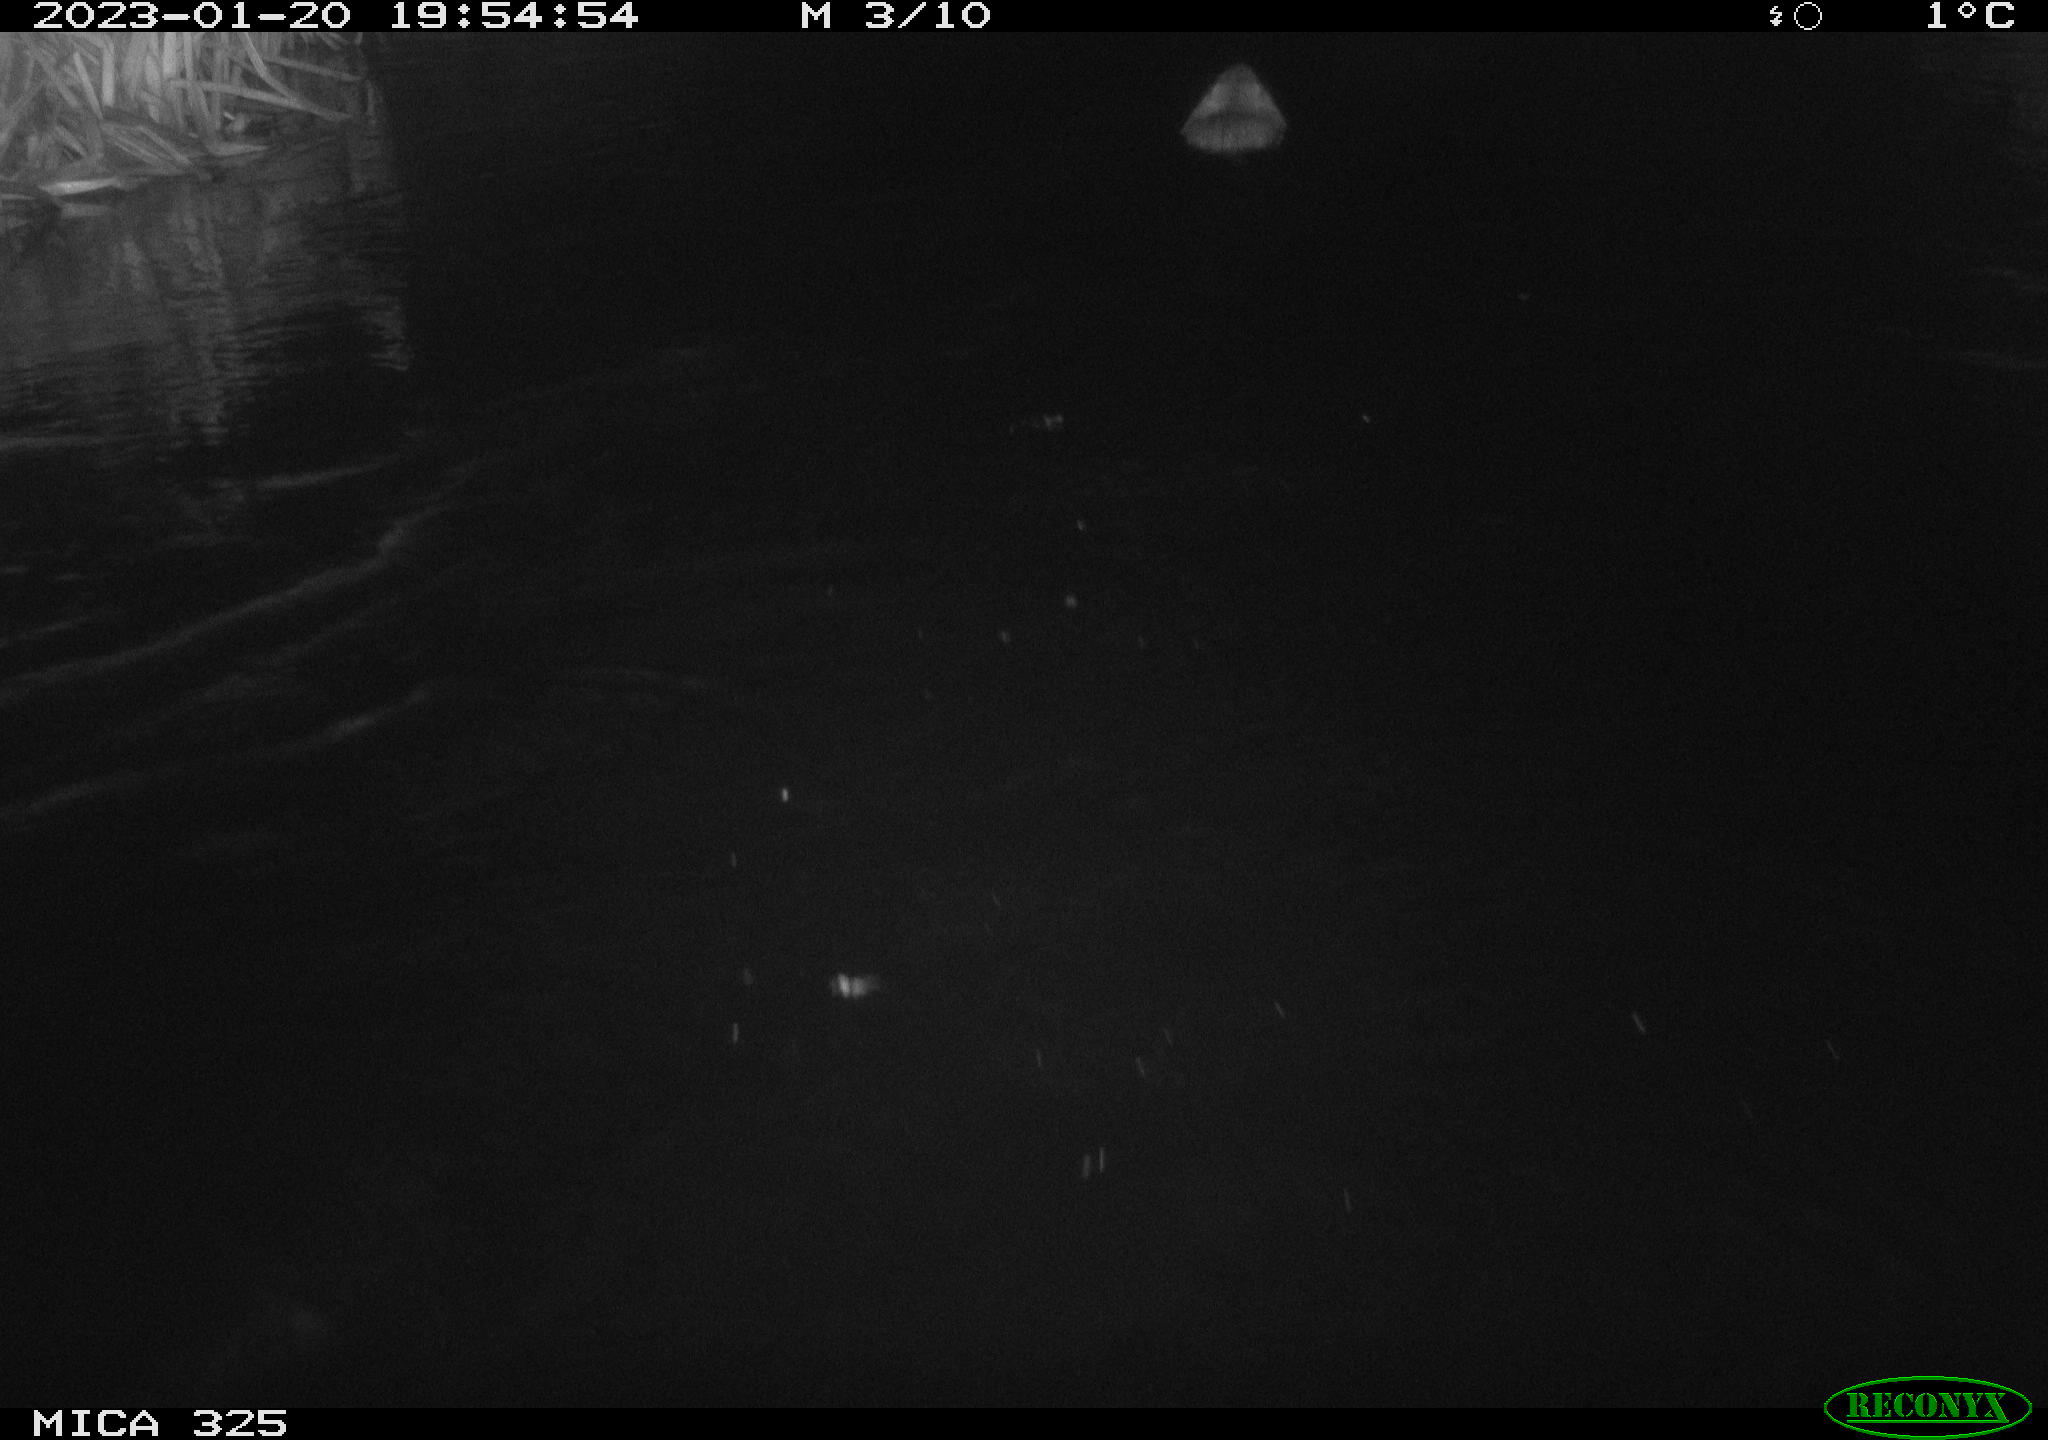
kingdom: Animalia
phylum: Chordata
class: Mammalia
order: Rodentia
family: Cricetidae
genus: Ondatra
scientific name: Ondatra zibethicus
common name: Muskrat
